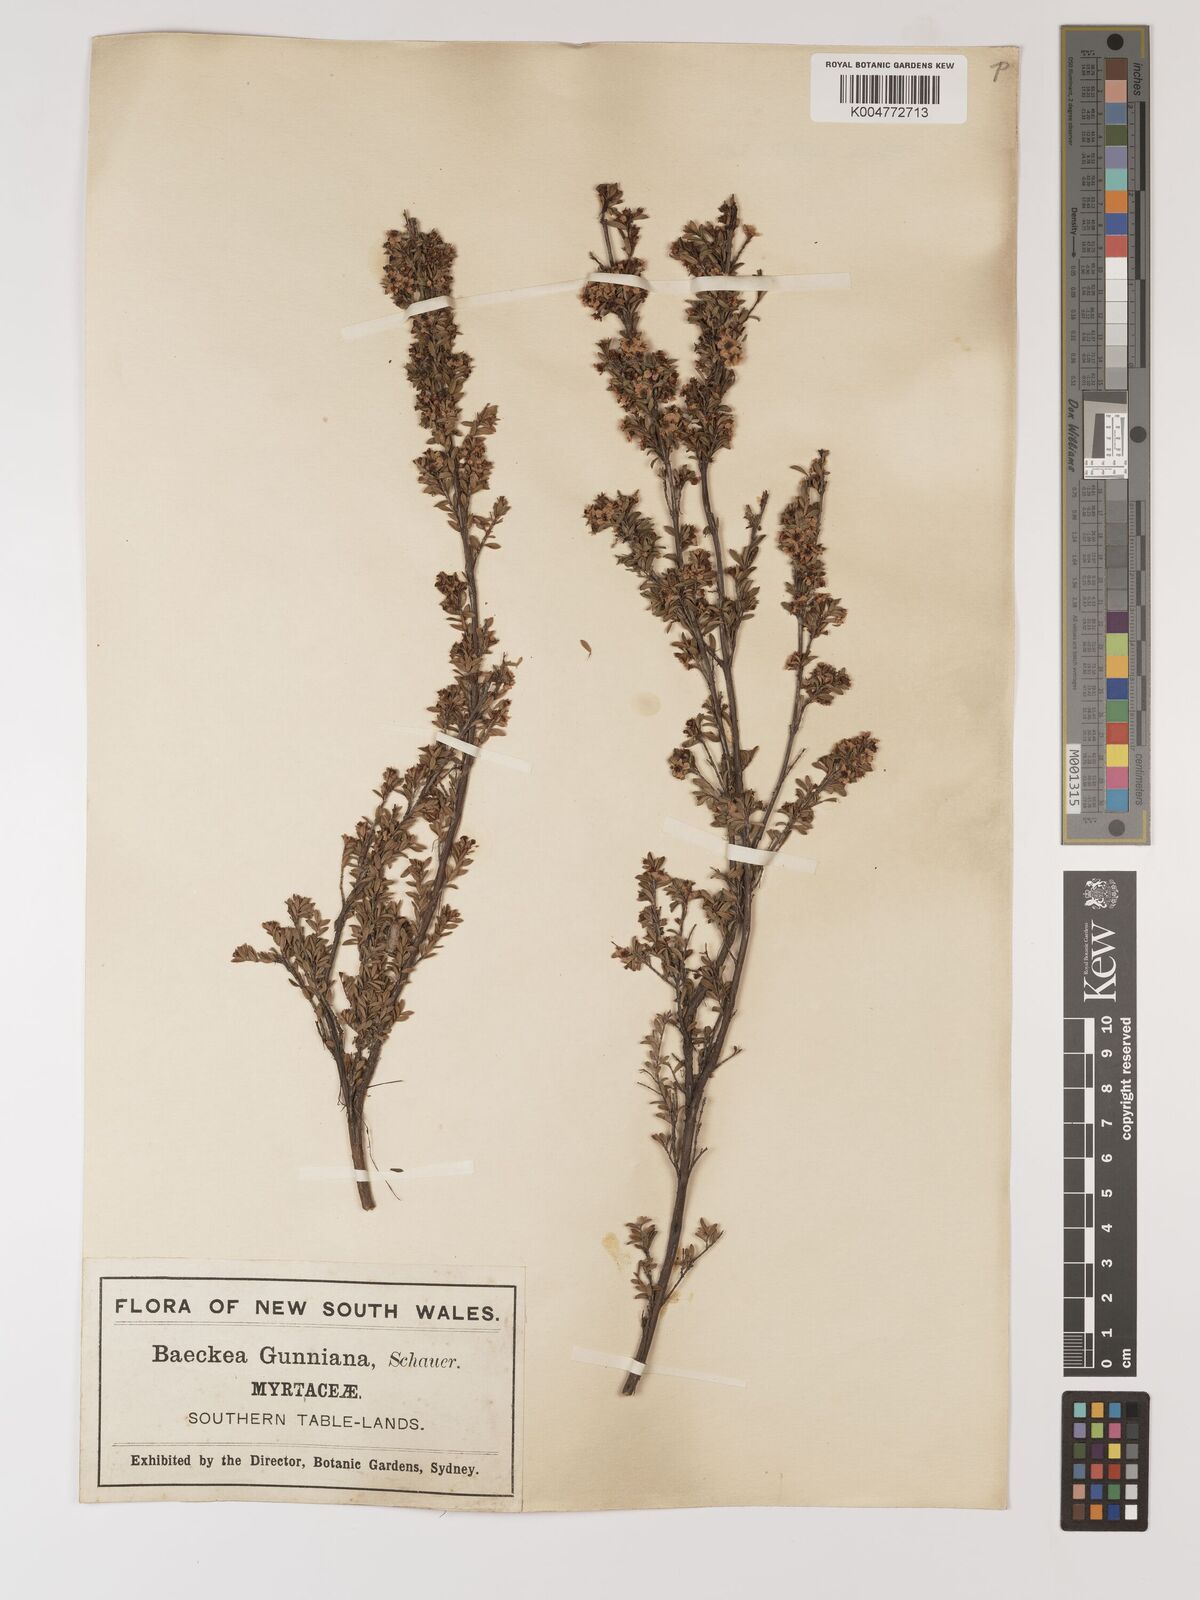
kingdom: Plantae
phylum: Tracheophyta
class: Magnoliopsida
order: Myrtales
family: Myrtaceae
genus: Baeckea
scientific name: Baeckea gunniana
